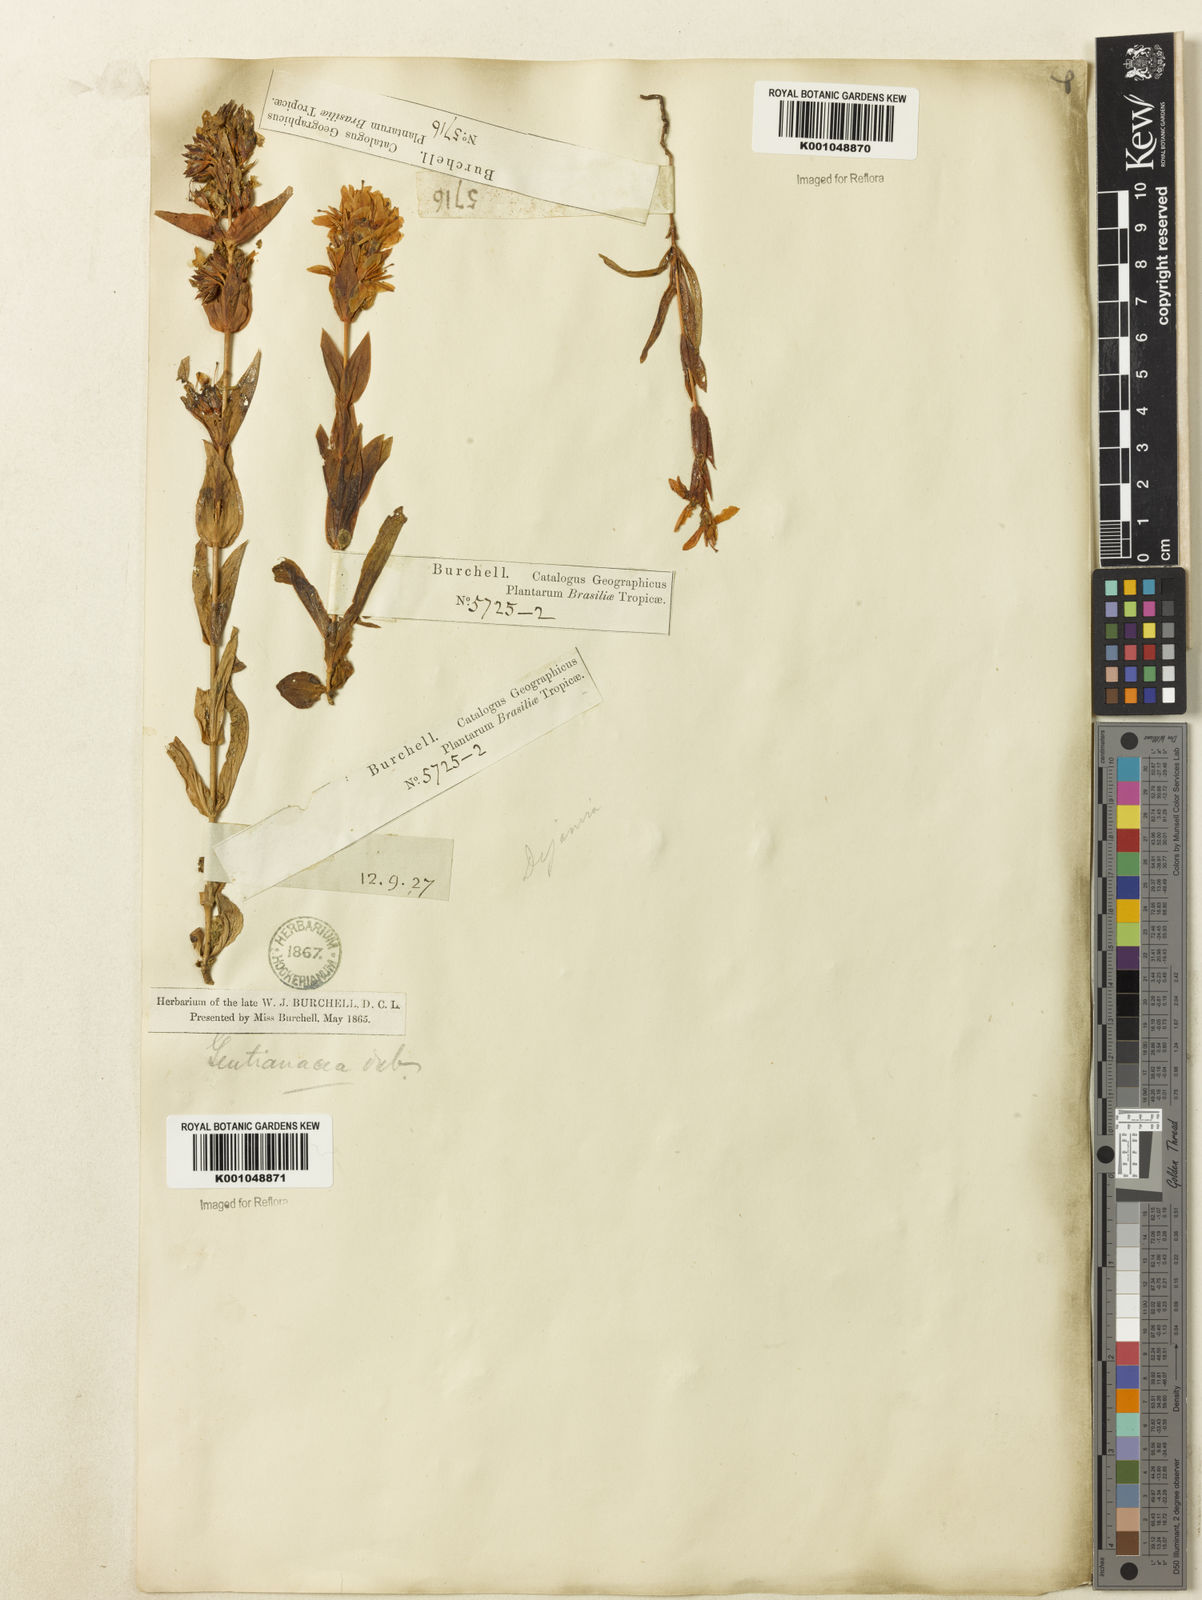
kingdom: Plantae
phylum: Tracheophyta
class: Magnoliopsida
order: Gentianales
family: Gentianaceae
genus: Deianira
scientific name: Deianira chiquitana
